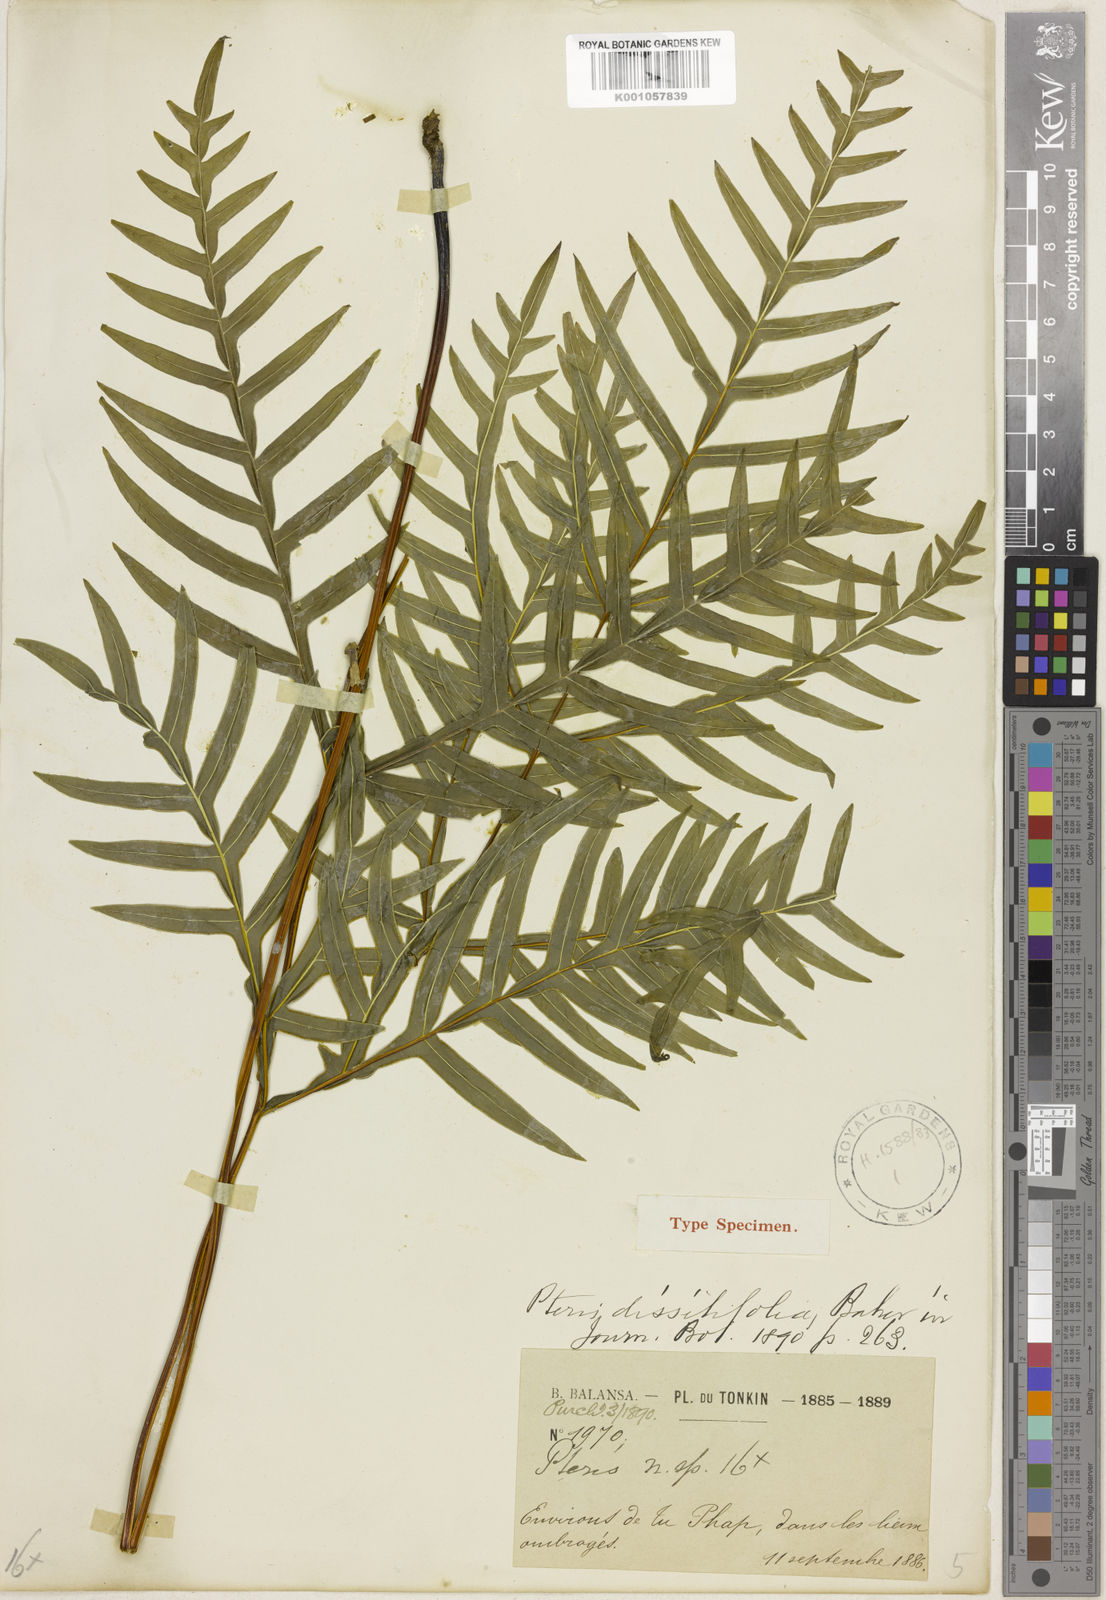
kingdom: Plantae
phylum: Tracheophyta
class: Polypodiopsida
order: Polypodiales
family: Pteridaceae
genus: Pteris
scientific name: Pteris dissitifolia
